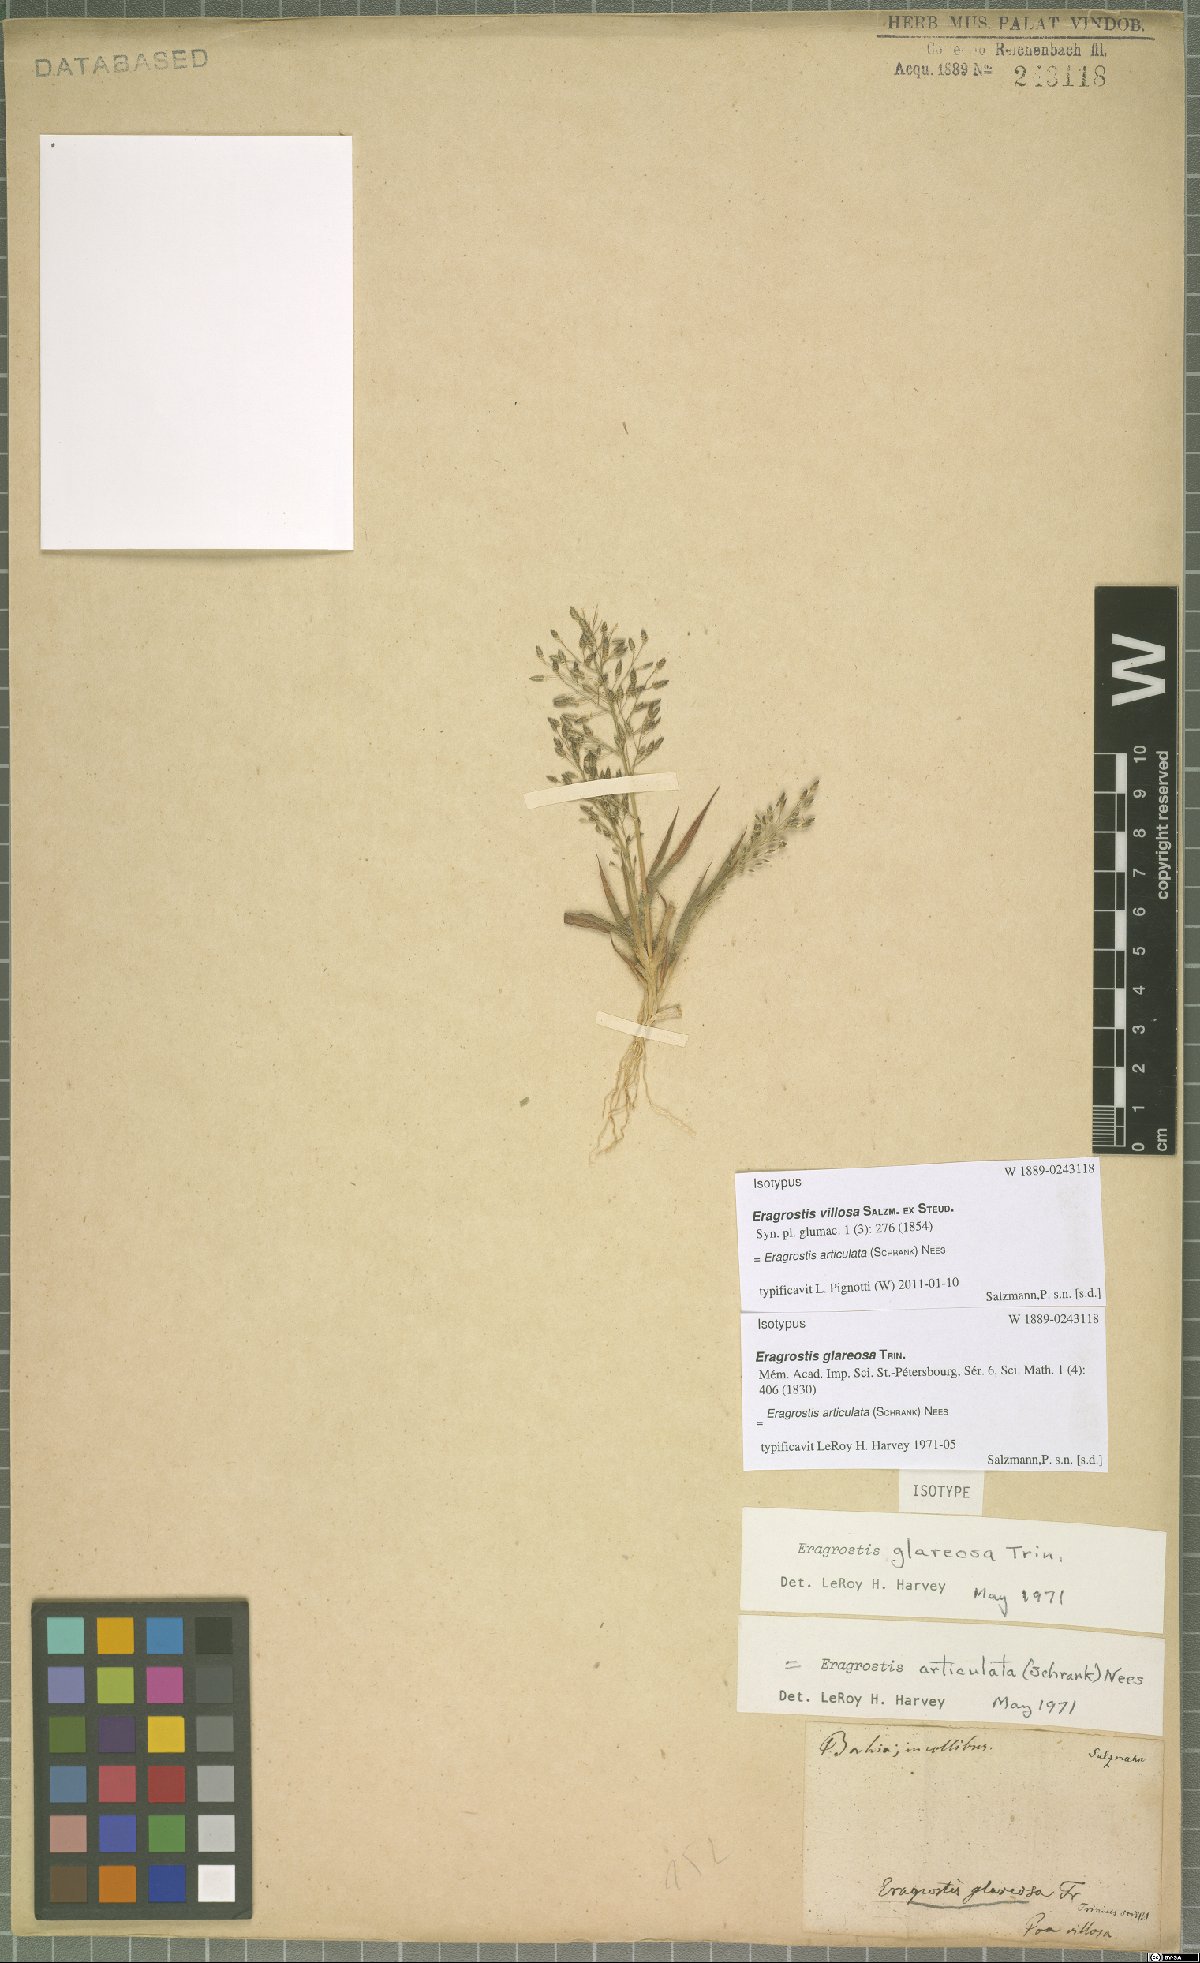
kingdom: Plantae
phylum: Tracheophyta
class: Liliopsida
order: Poales
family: Poaceae
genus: Eragrostis
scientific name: Eragrostis articulata
